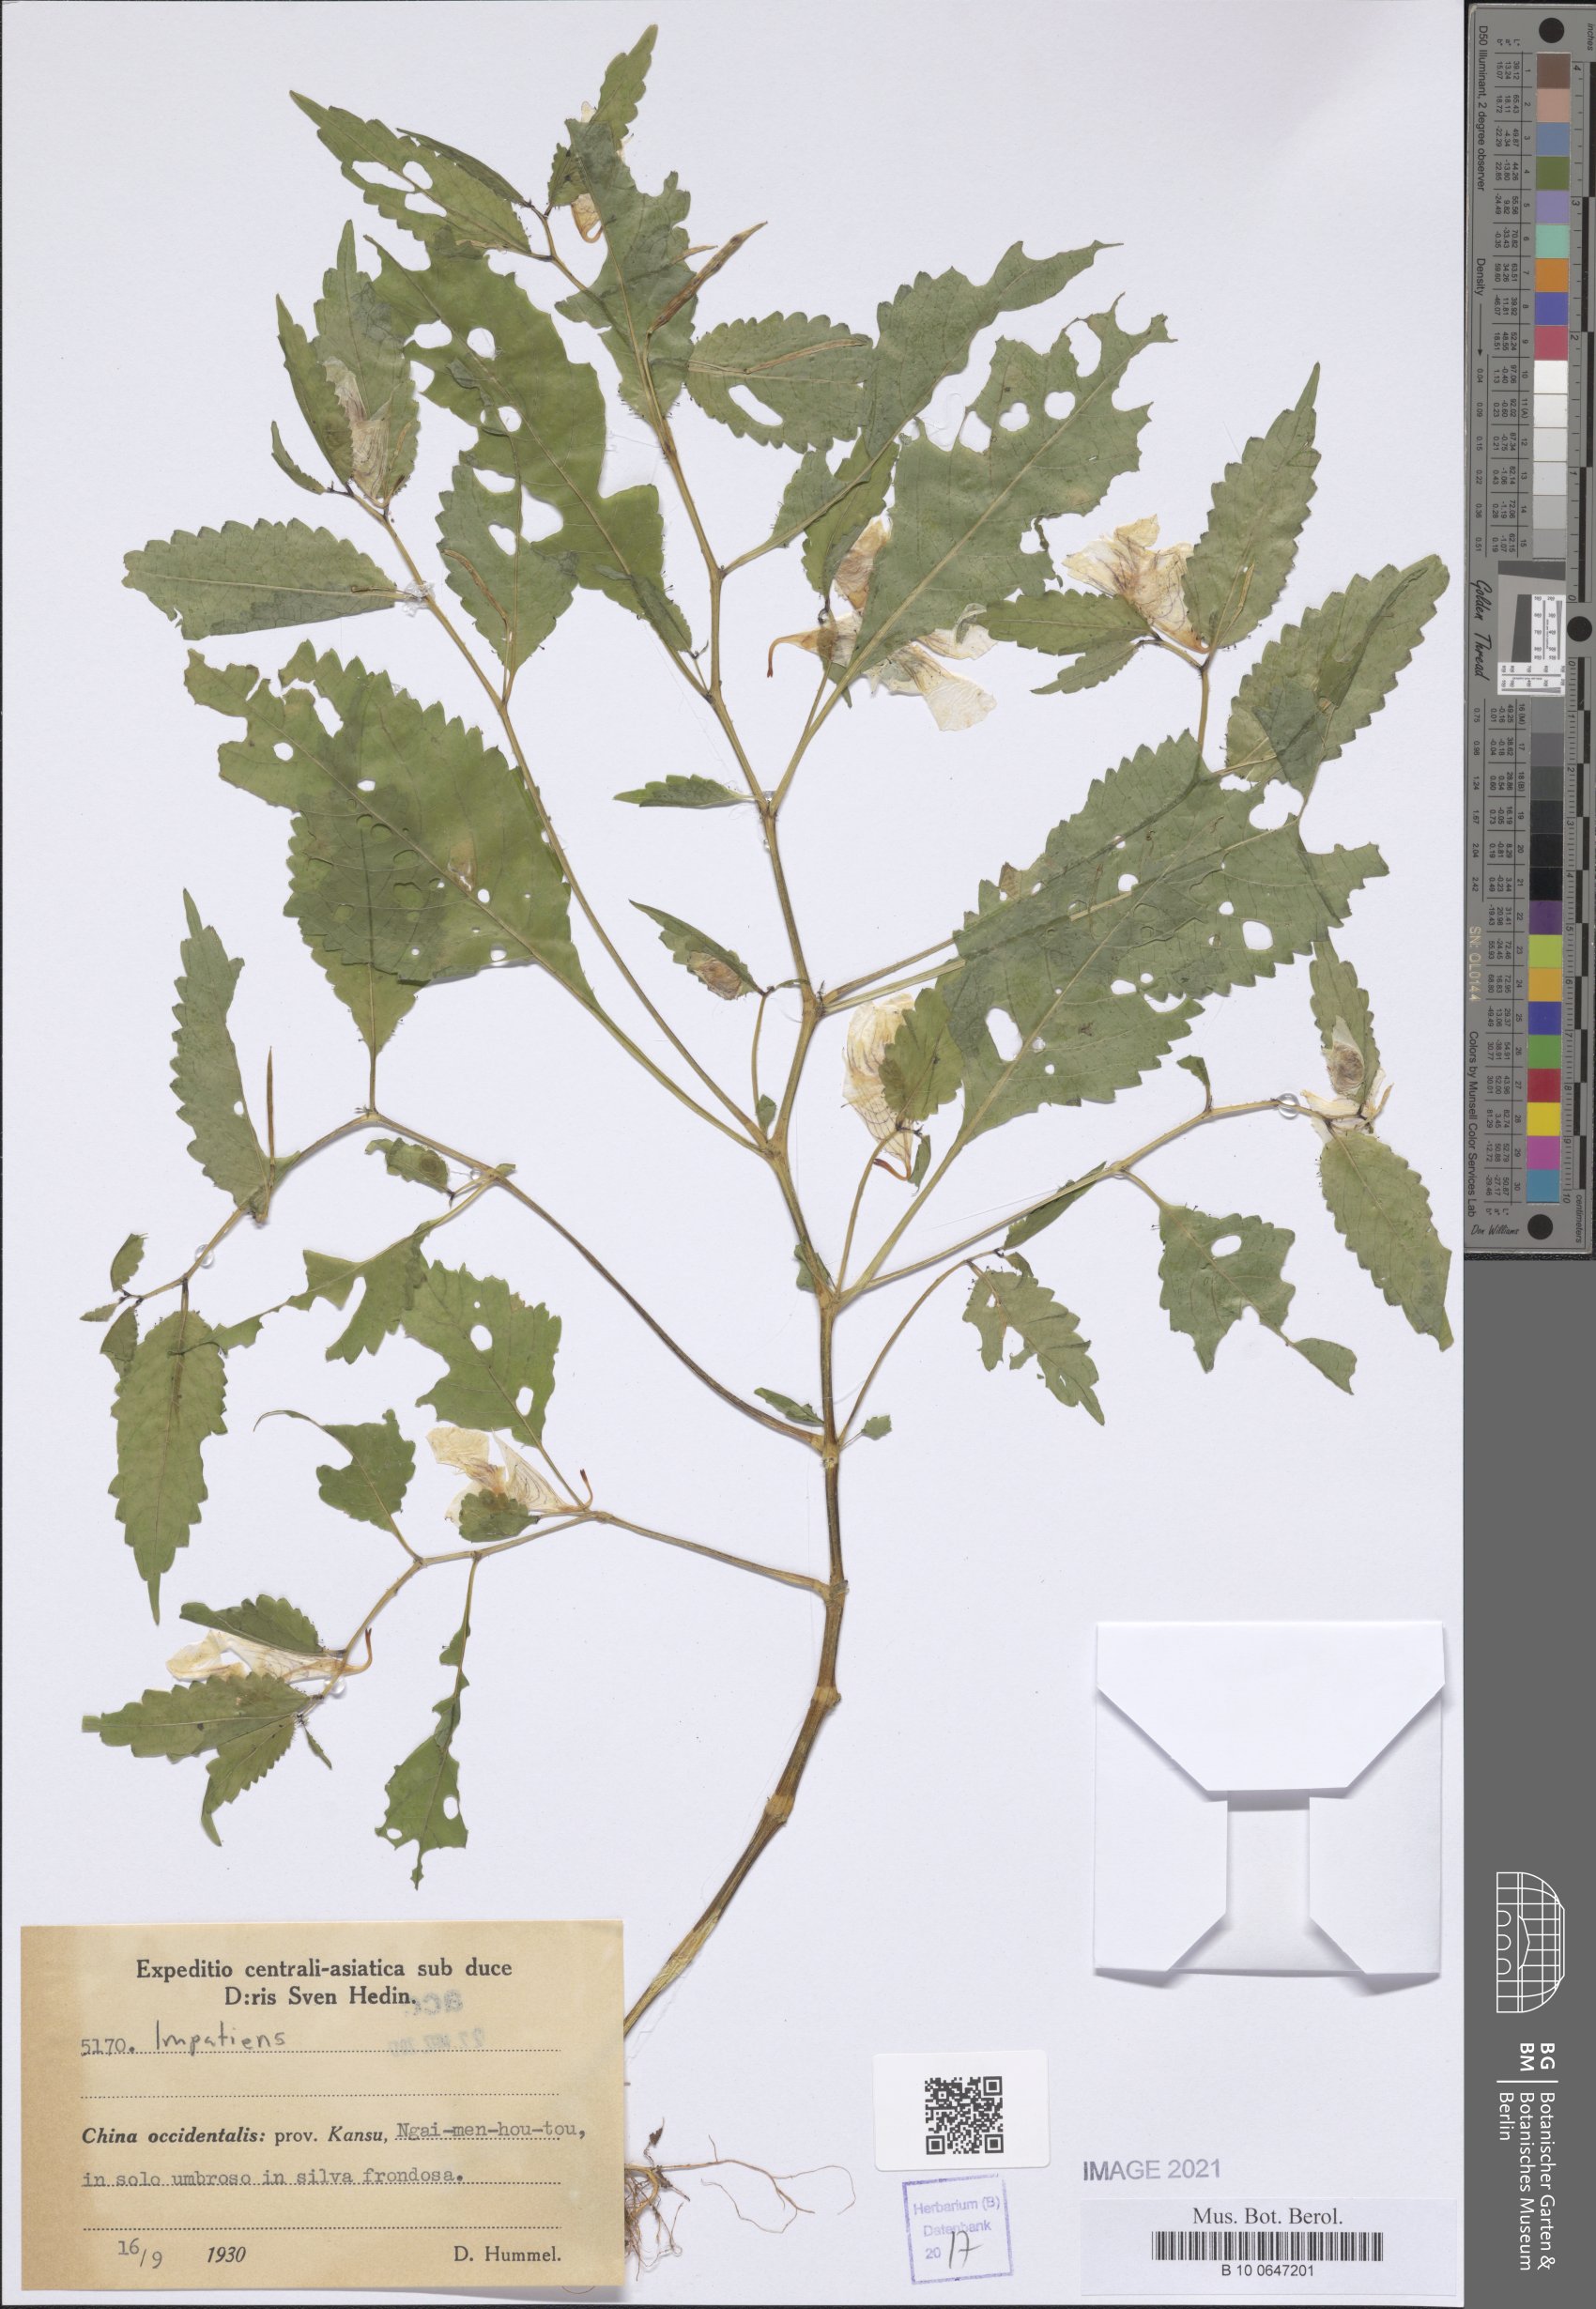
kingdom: Plantae
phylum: Tracheophyta
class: Magnoliopsida
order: Ericales
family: Balsaminaceae
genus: Impatiens
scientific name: Impatiens
